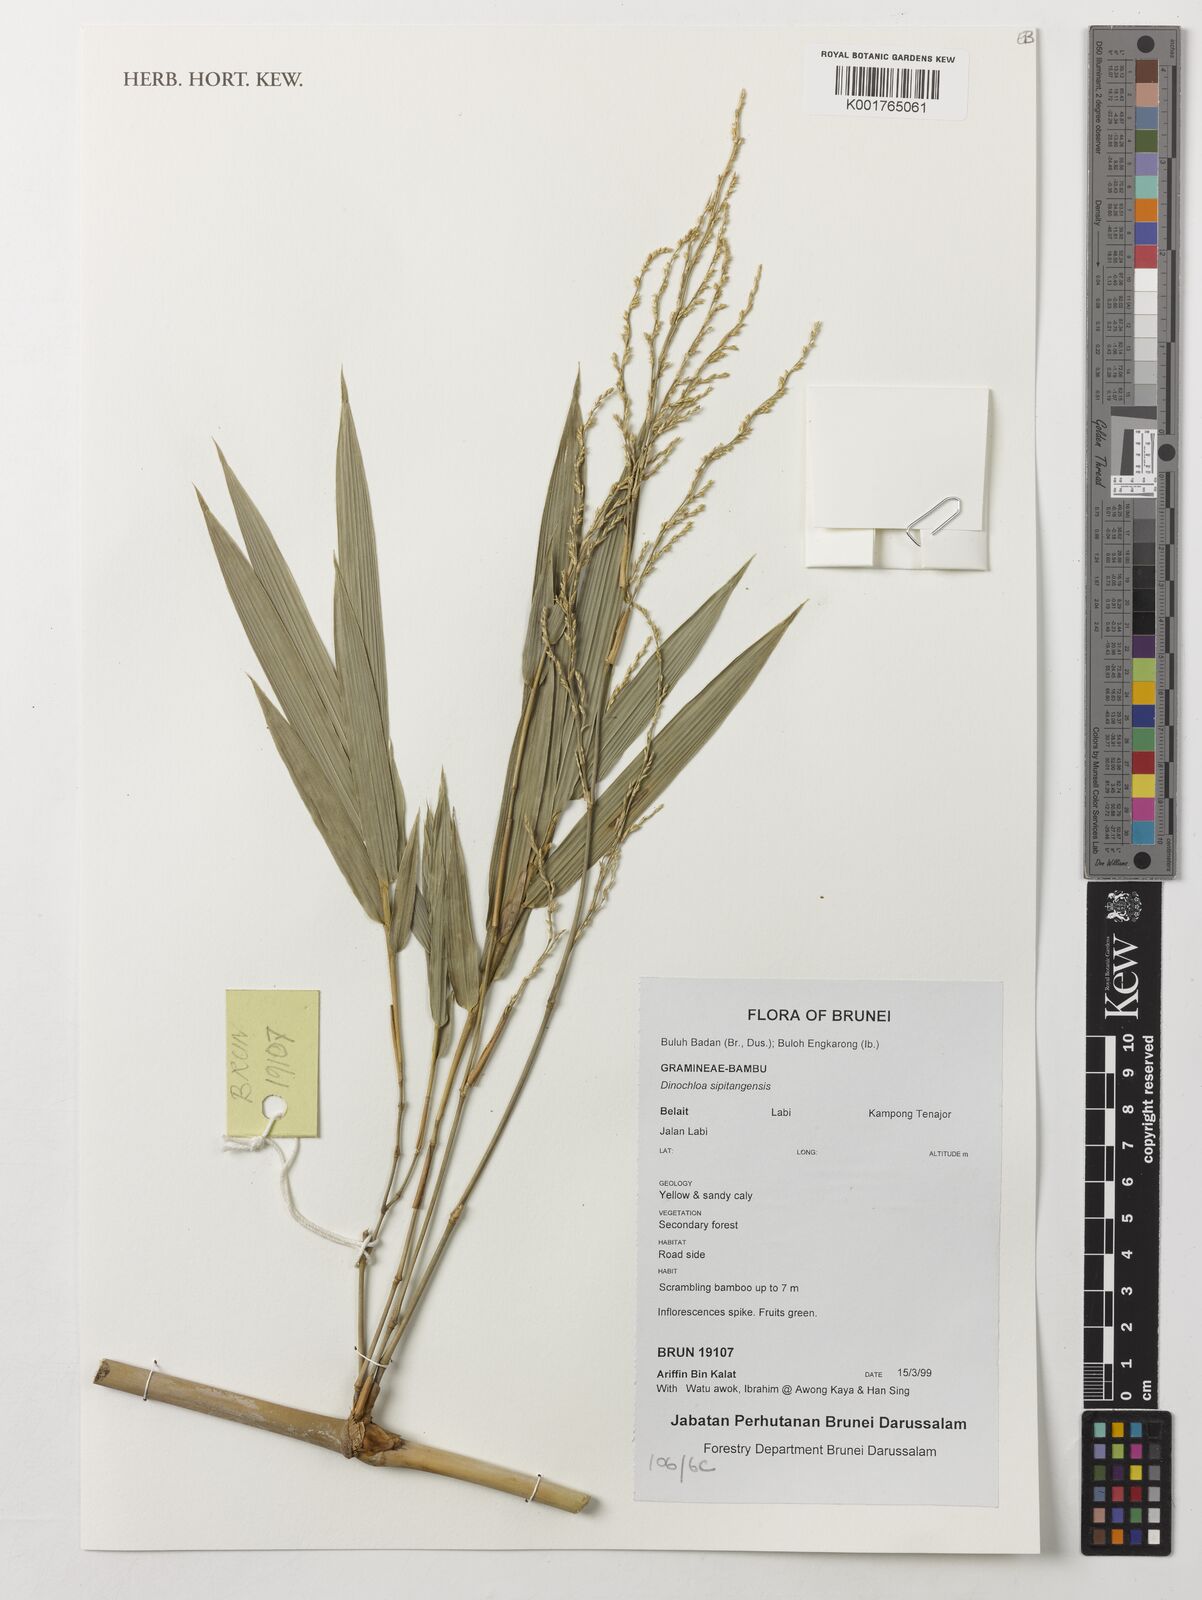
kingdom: Plantae
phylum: Tracheophyta
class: Liliopsida
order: Poales
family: Poaceae
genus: Dinochloa
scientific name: Dinochloa sipitangensis
